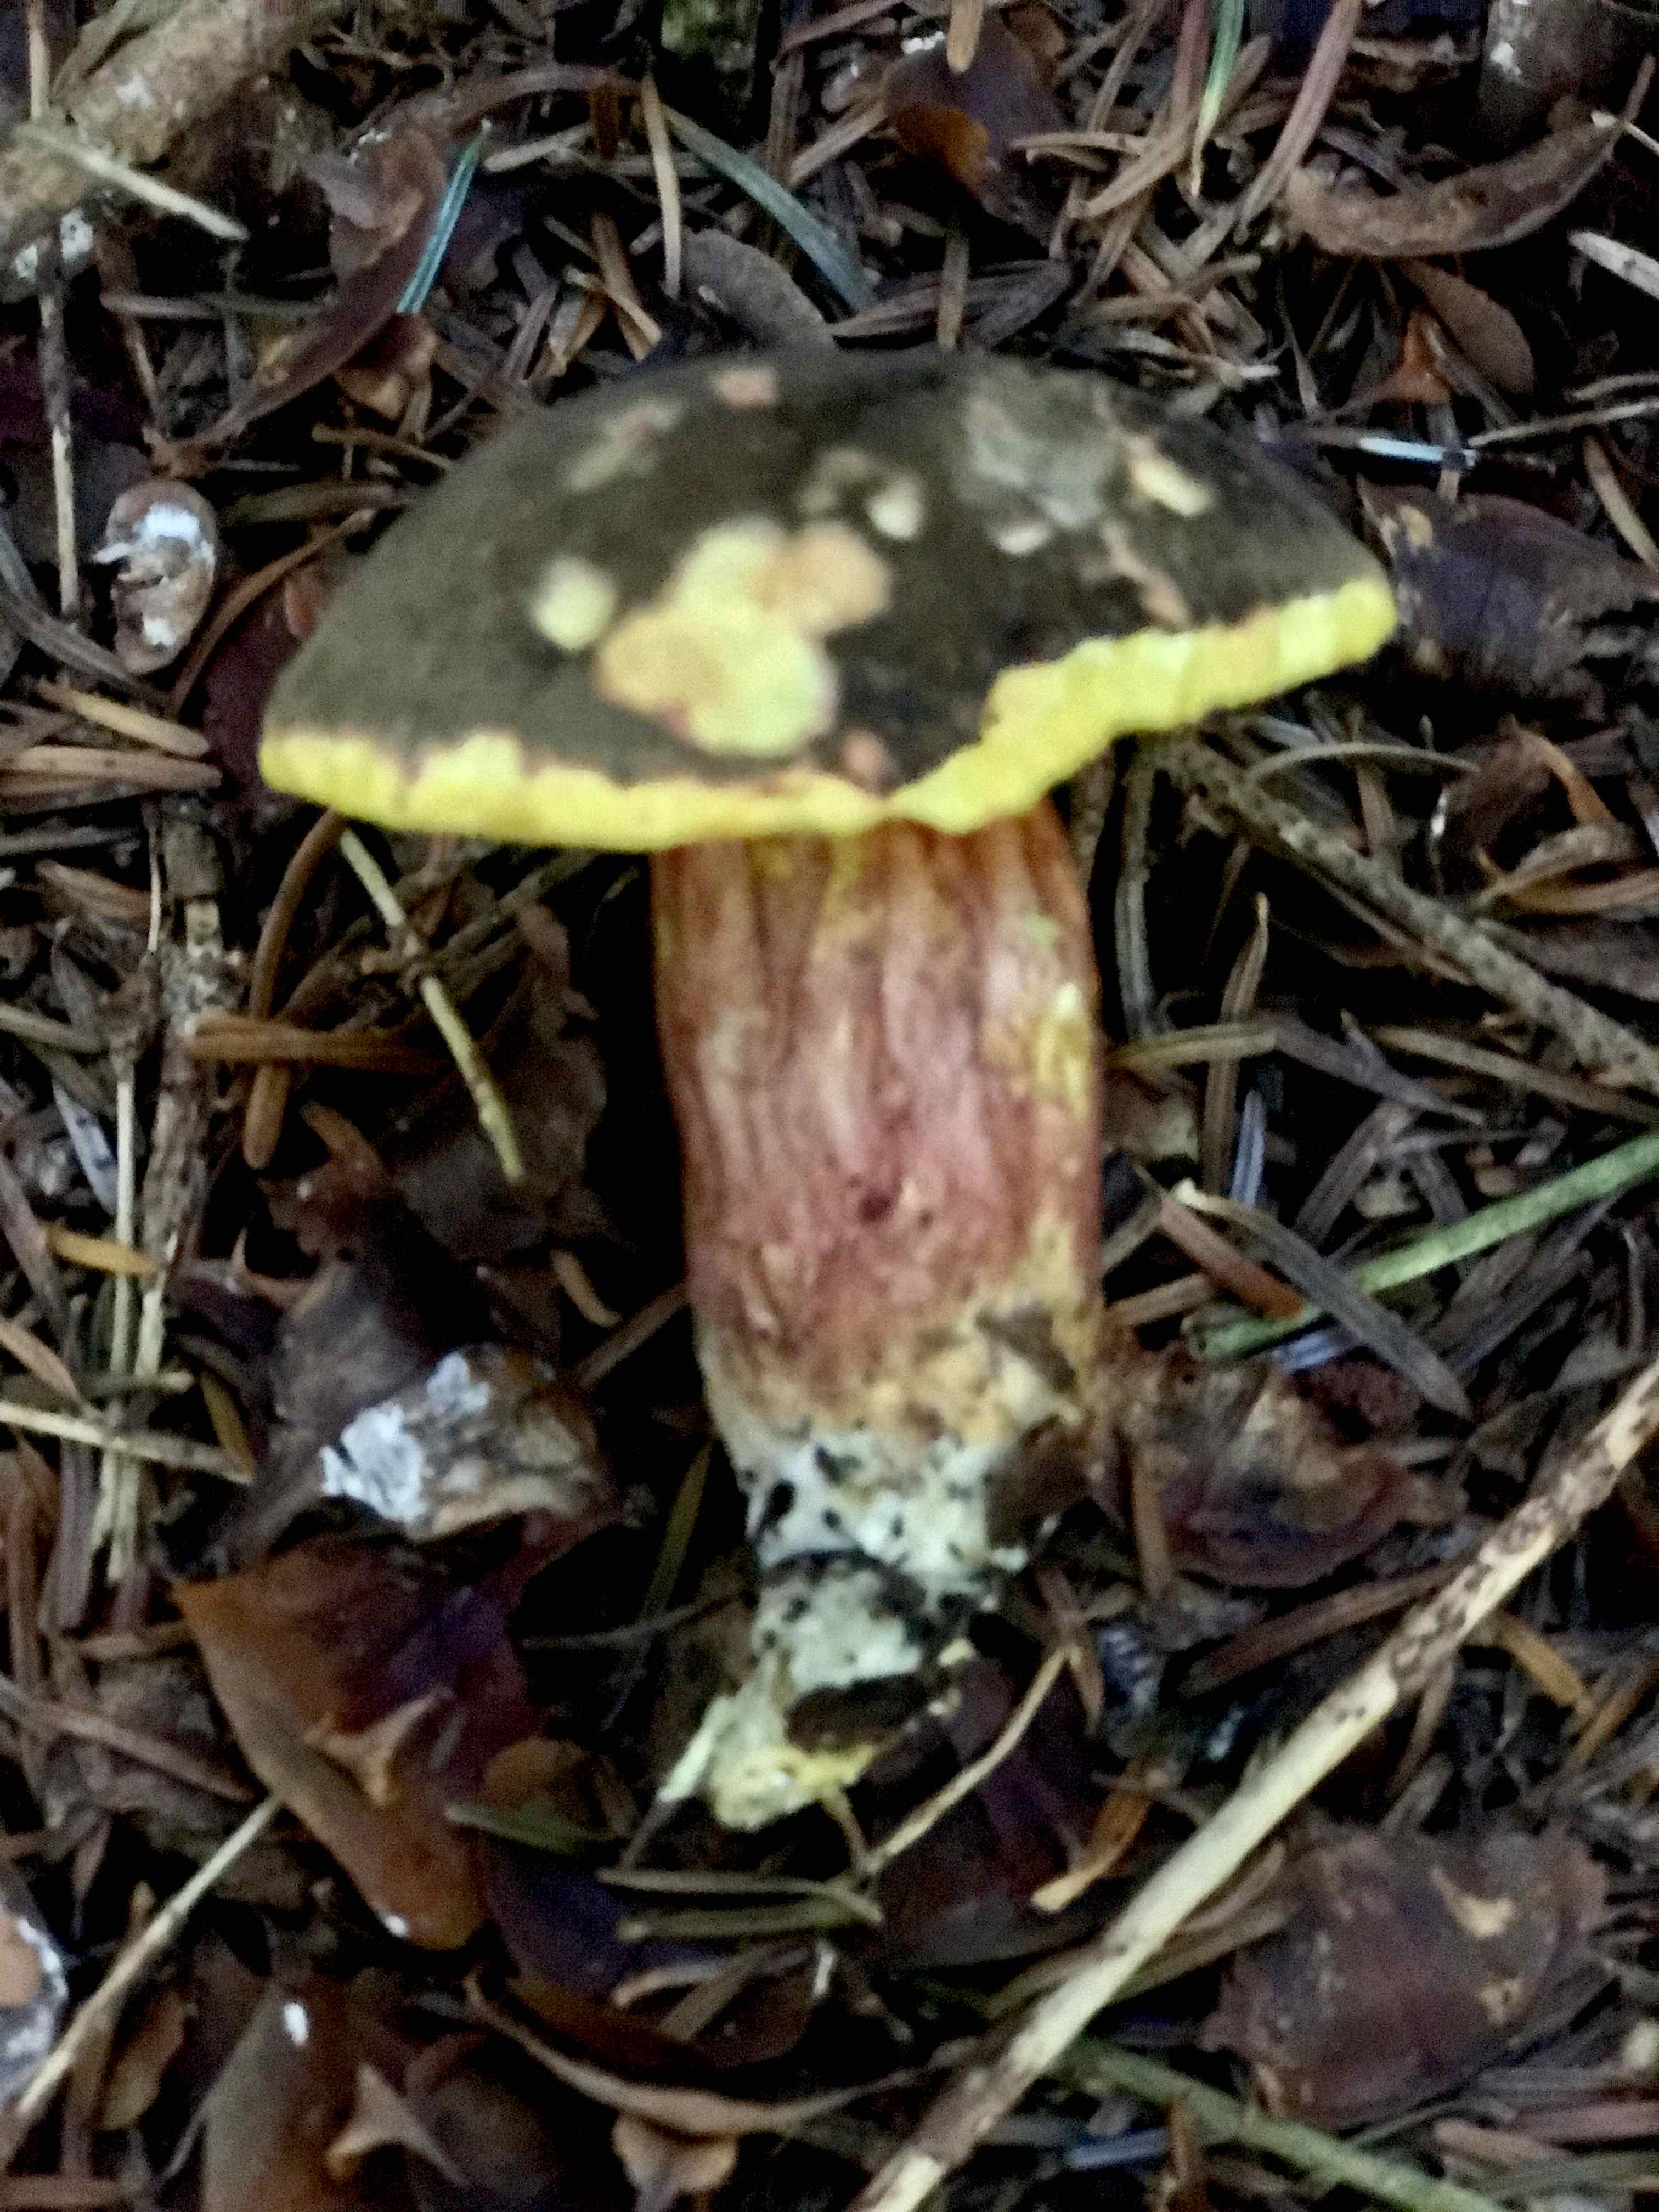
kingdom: Fungi
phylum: Basidiomycota
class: Agaricomycetes
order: Boletales
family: Boletaceae
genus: Xerocomellus
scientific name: Xerocomellus pruinatus
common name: dugget rørhat
